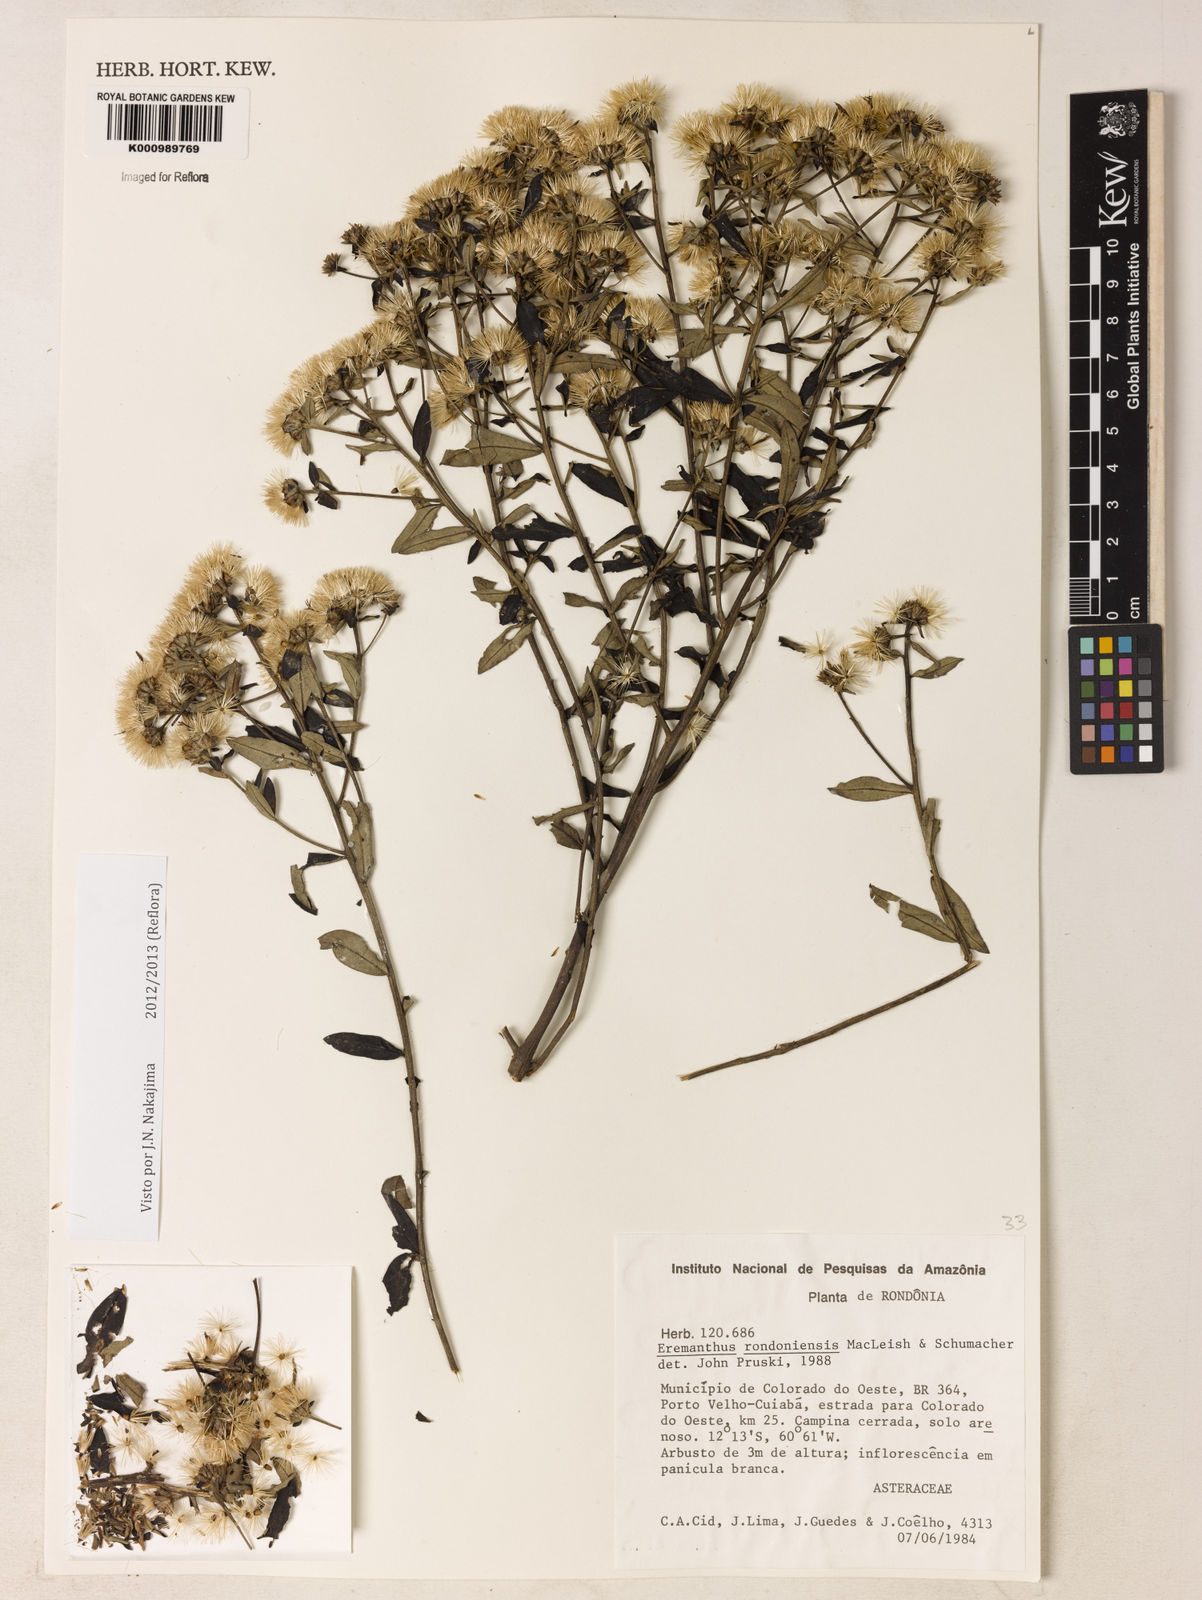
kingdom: Plantae
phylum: Tracheophyta
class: Magnoliopsida
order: Asterales
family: Asteraceae
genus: Eremanthus
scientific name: Eremanthus rondoniensis
